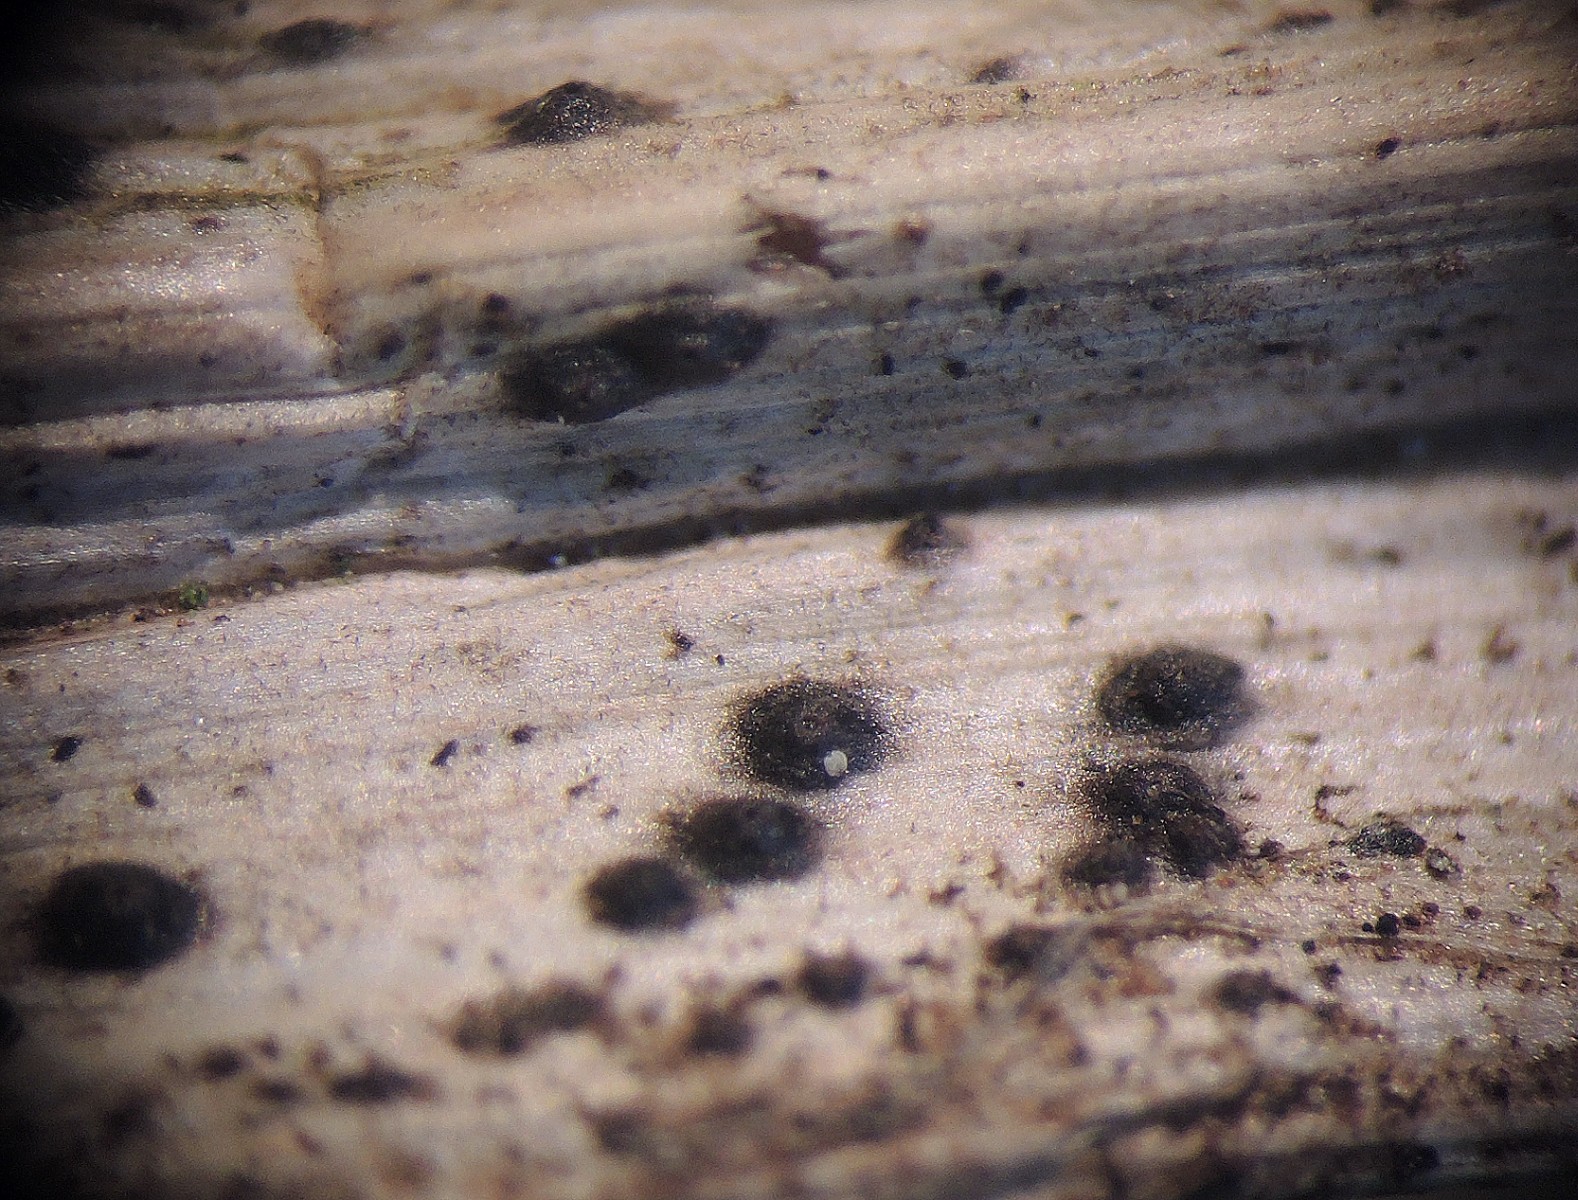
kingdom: Fungi
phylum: Ascomycota
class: Dothideomycetes
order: Dothideales
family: Saccotheciaceae
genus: Metasphaeria
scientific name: Metasphaeria cumana
